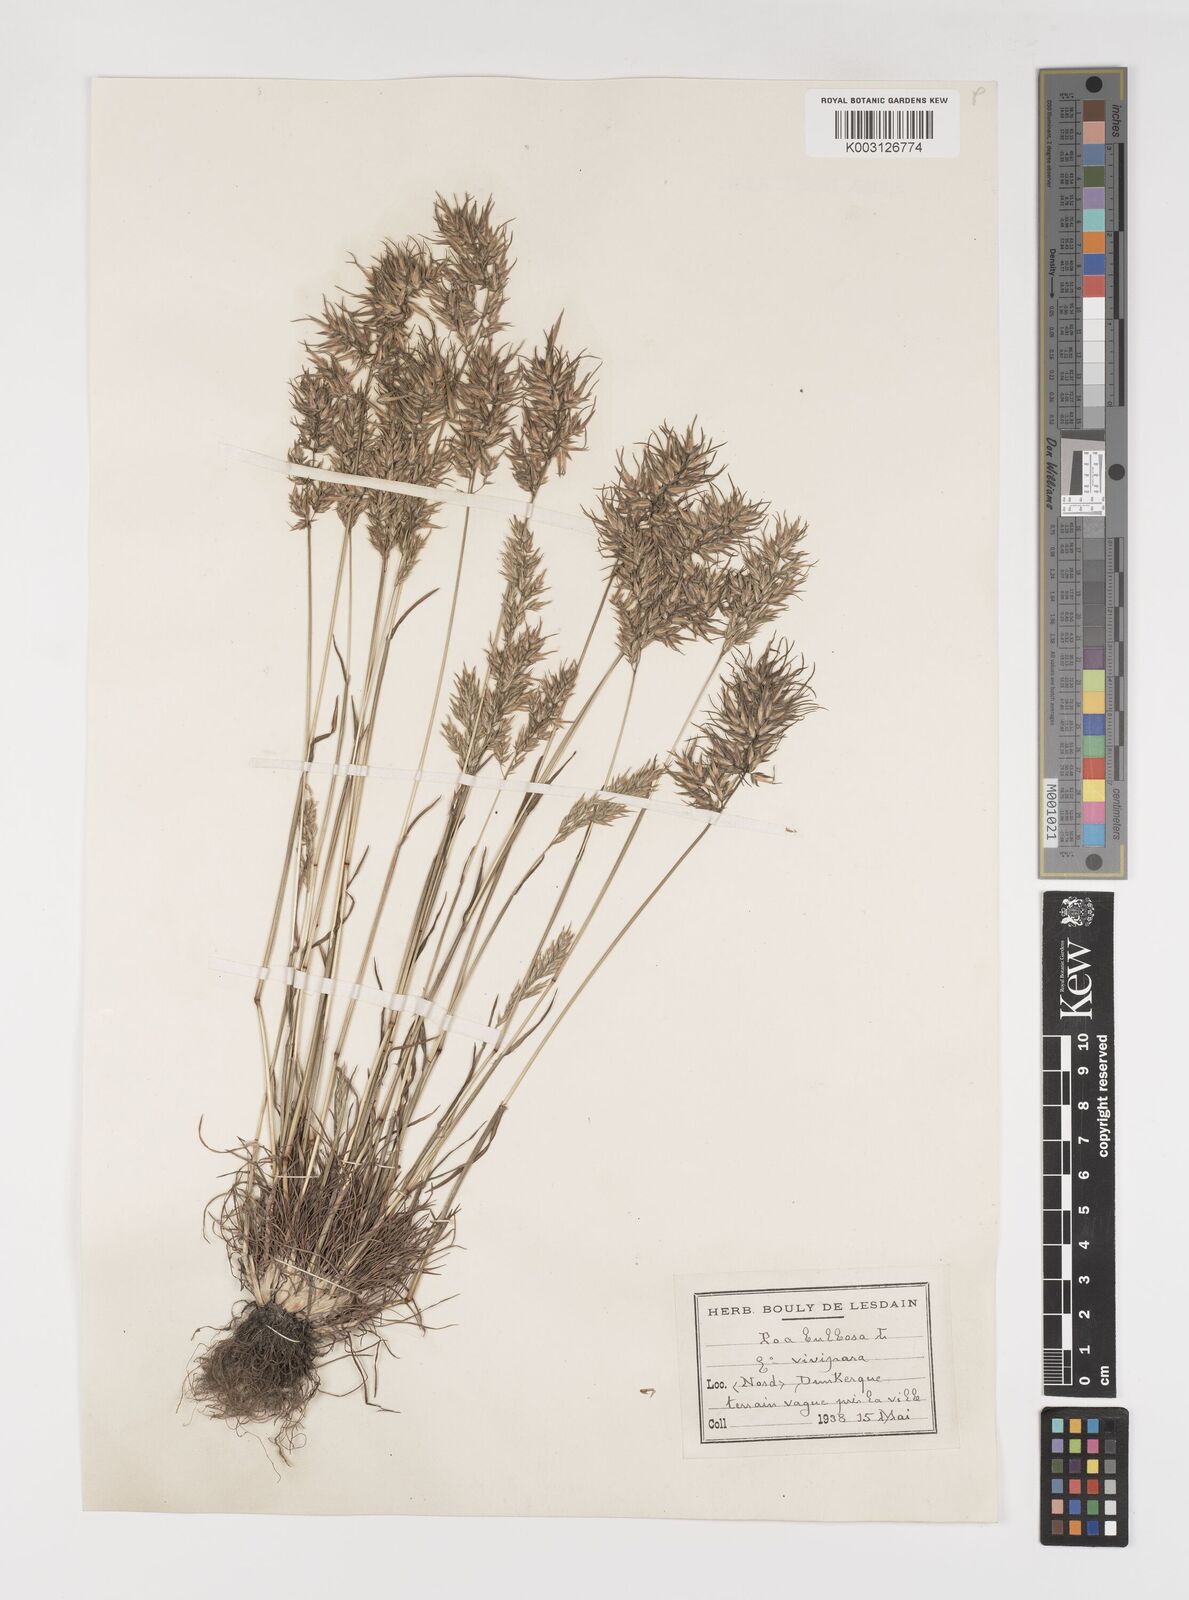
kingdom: Plantae
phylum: Tracheophyta
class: Liliopsida
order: Poales
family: Poaceae
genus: Poa
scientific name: Poa bulbosa
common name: Bulbous bluegrass
